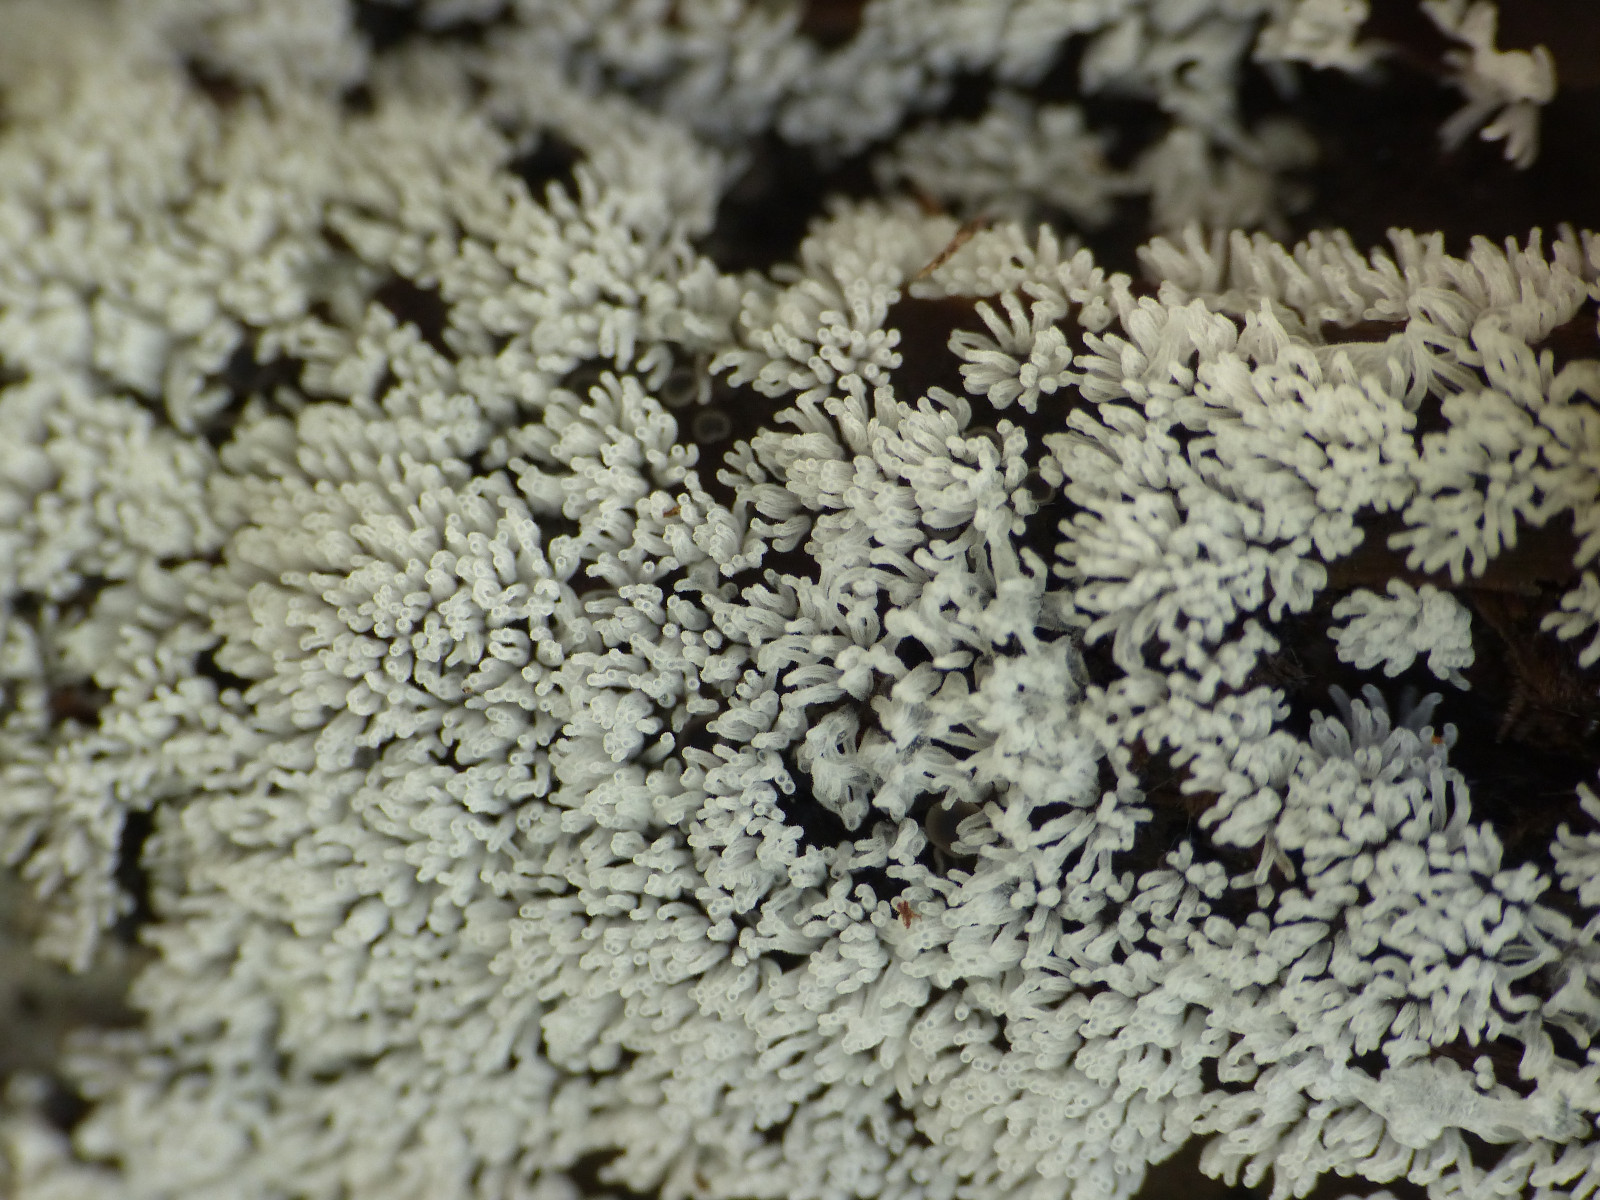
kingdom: Protozoa
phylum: Mycetozoa
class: Protosteliomycetes
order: Ceratiomyxales
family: Ceratiomyxaceae
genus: Ceratiomyxa
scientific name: Ceratiomyxa fruticulosa
